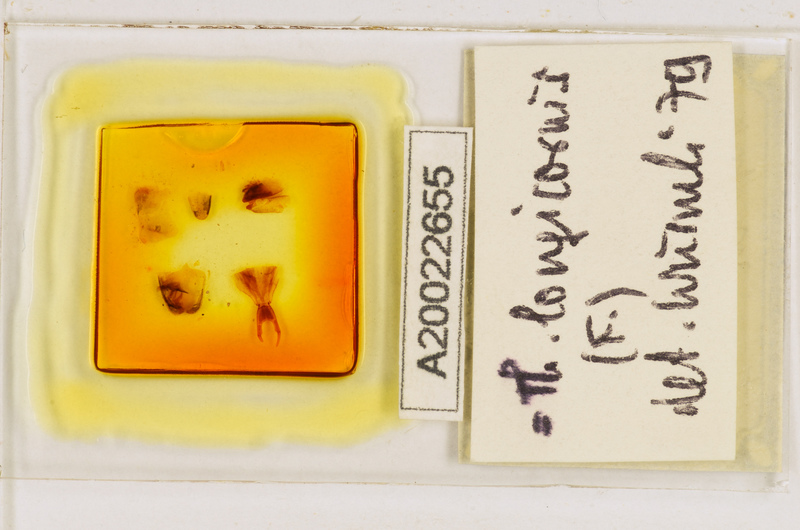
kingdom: Animalia
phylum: Arthropoda
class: Chilopoda
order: Scutigeromorpha
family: Scutigeridae
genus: Thereuopoda
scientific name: Thereuopoda longicornis
